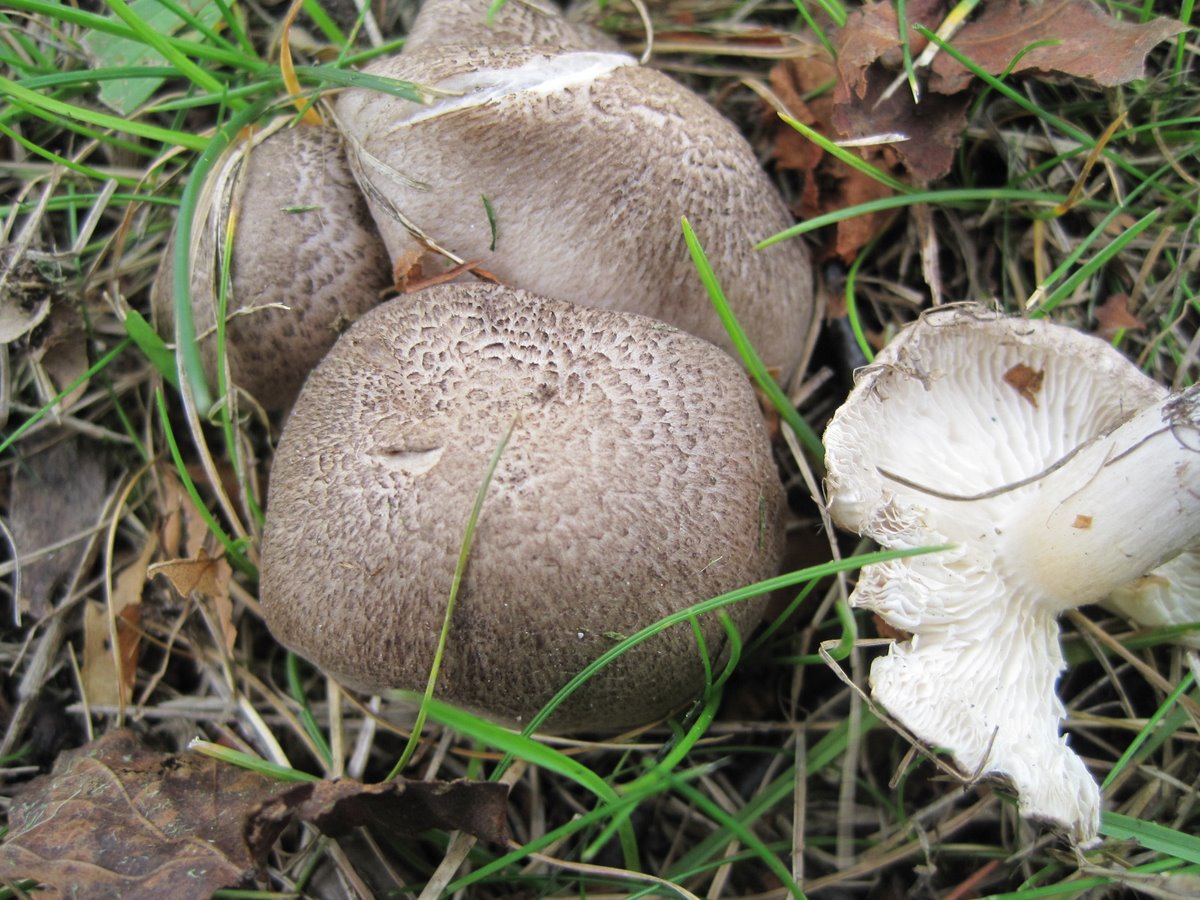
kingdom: Fungi
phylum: Basidiomycota
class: Agaricomycetes
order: Agaricales
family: Tricholomataceae
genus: Tricholoma
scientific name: Tricholoma scalpturatum
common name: gulplettet ridderhat
